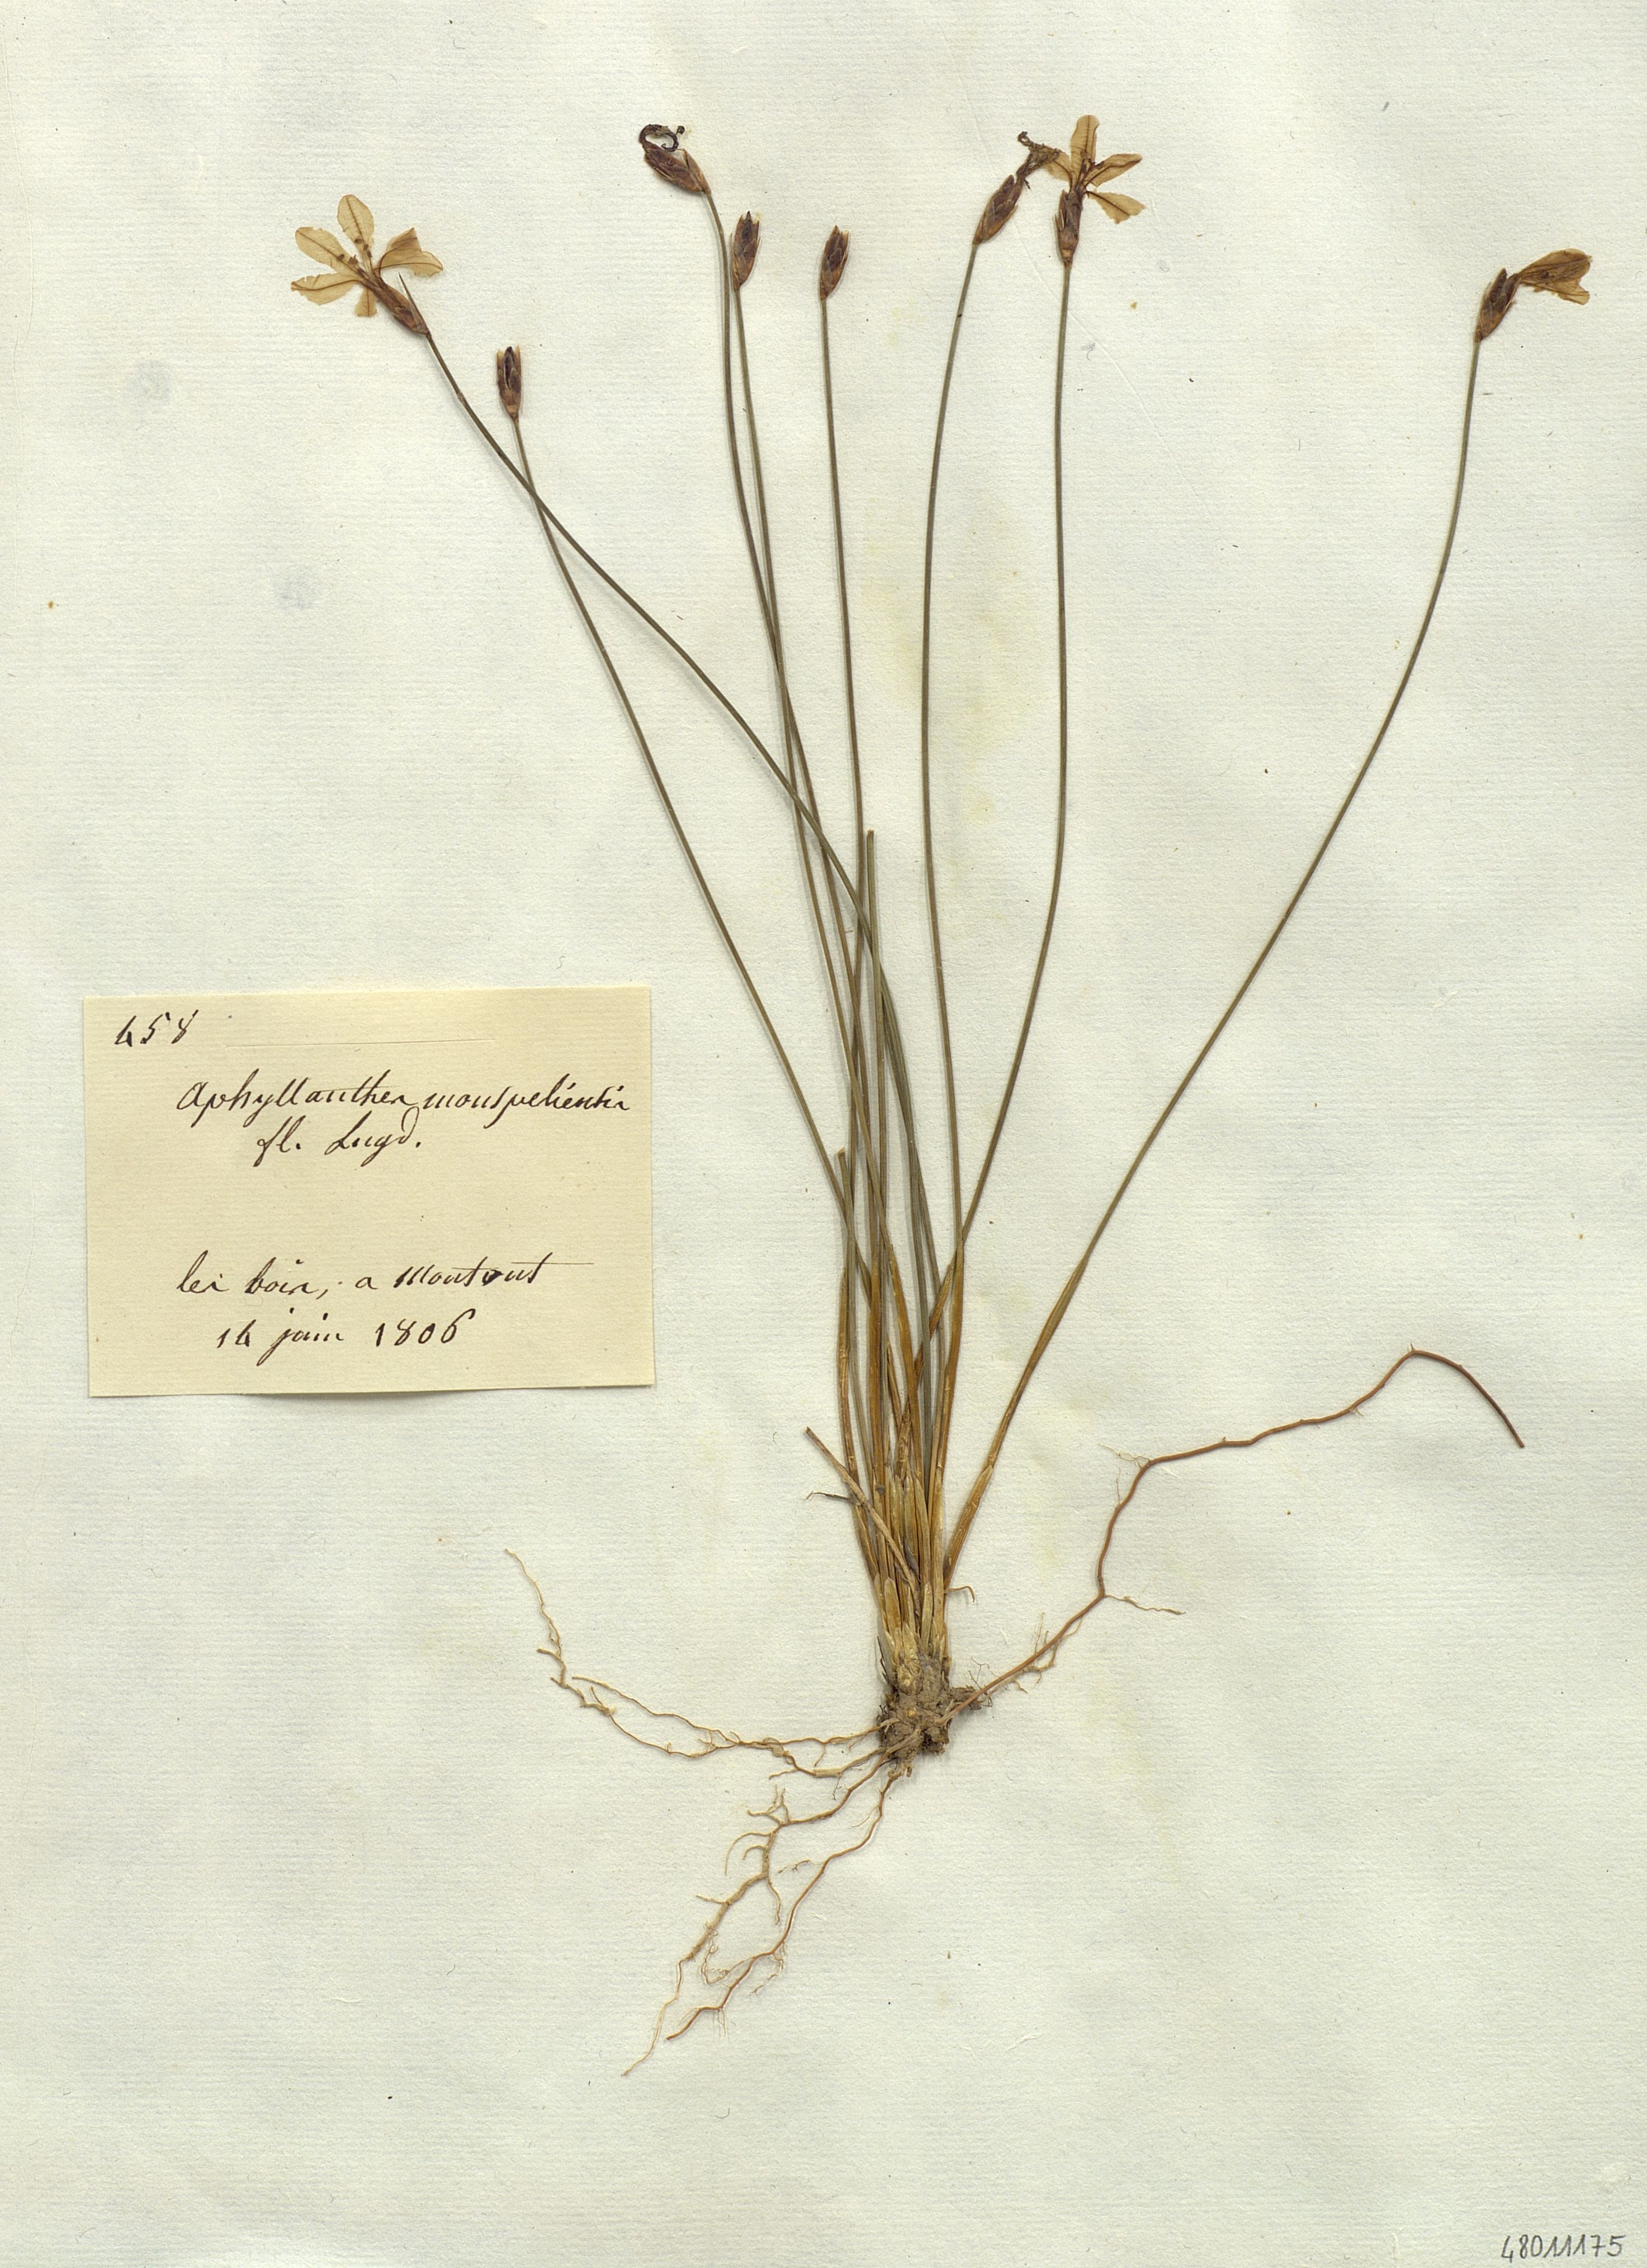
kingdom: Plantae
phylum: Tracheophyta
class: Liliopsida
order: Liliales
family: Liliaceae
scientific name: Liliaceae
